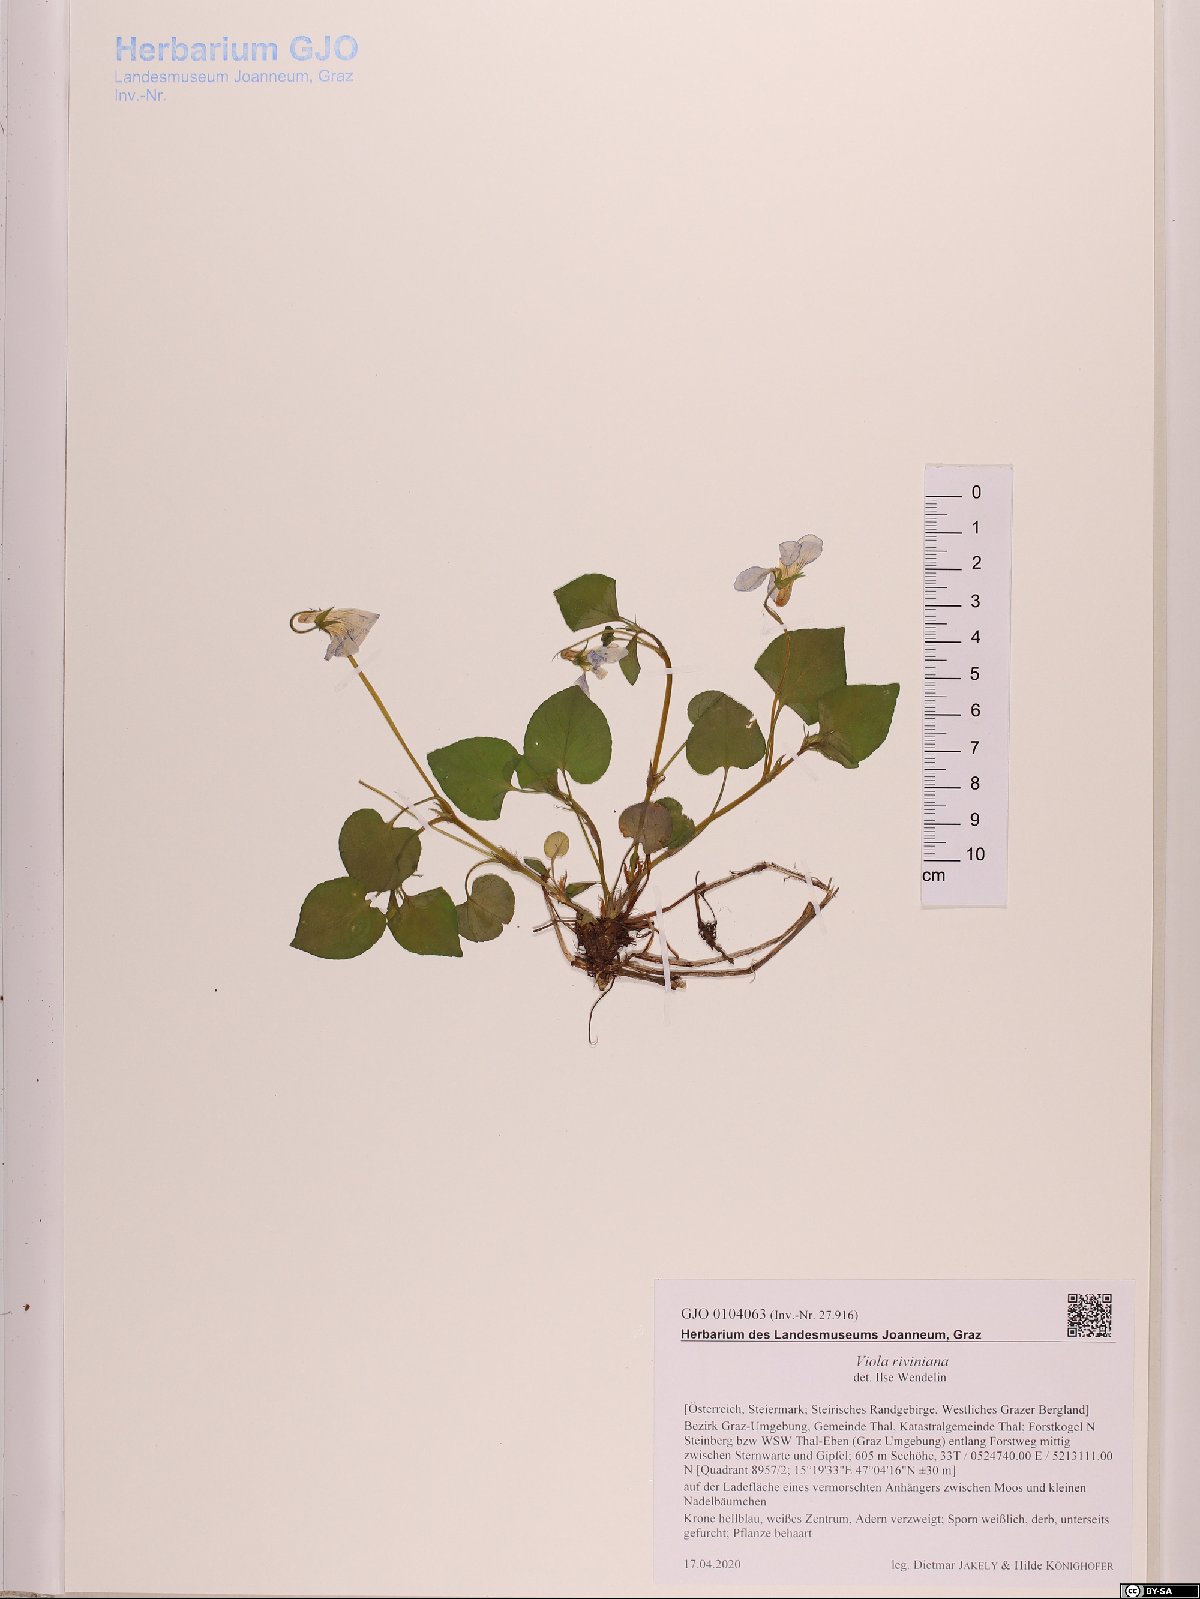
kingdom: Plantae
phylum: Tracheophyta
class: Magnoliopsida
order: Malpighiales
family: Violaceae
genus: Viola
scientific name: Viola riviniana
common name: Common dog-violet
